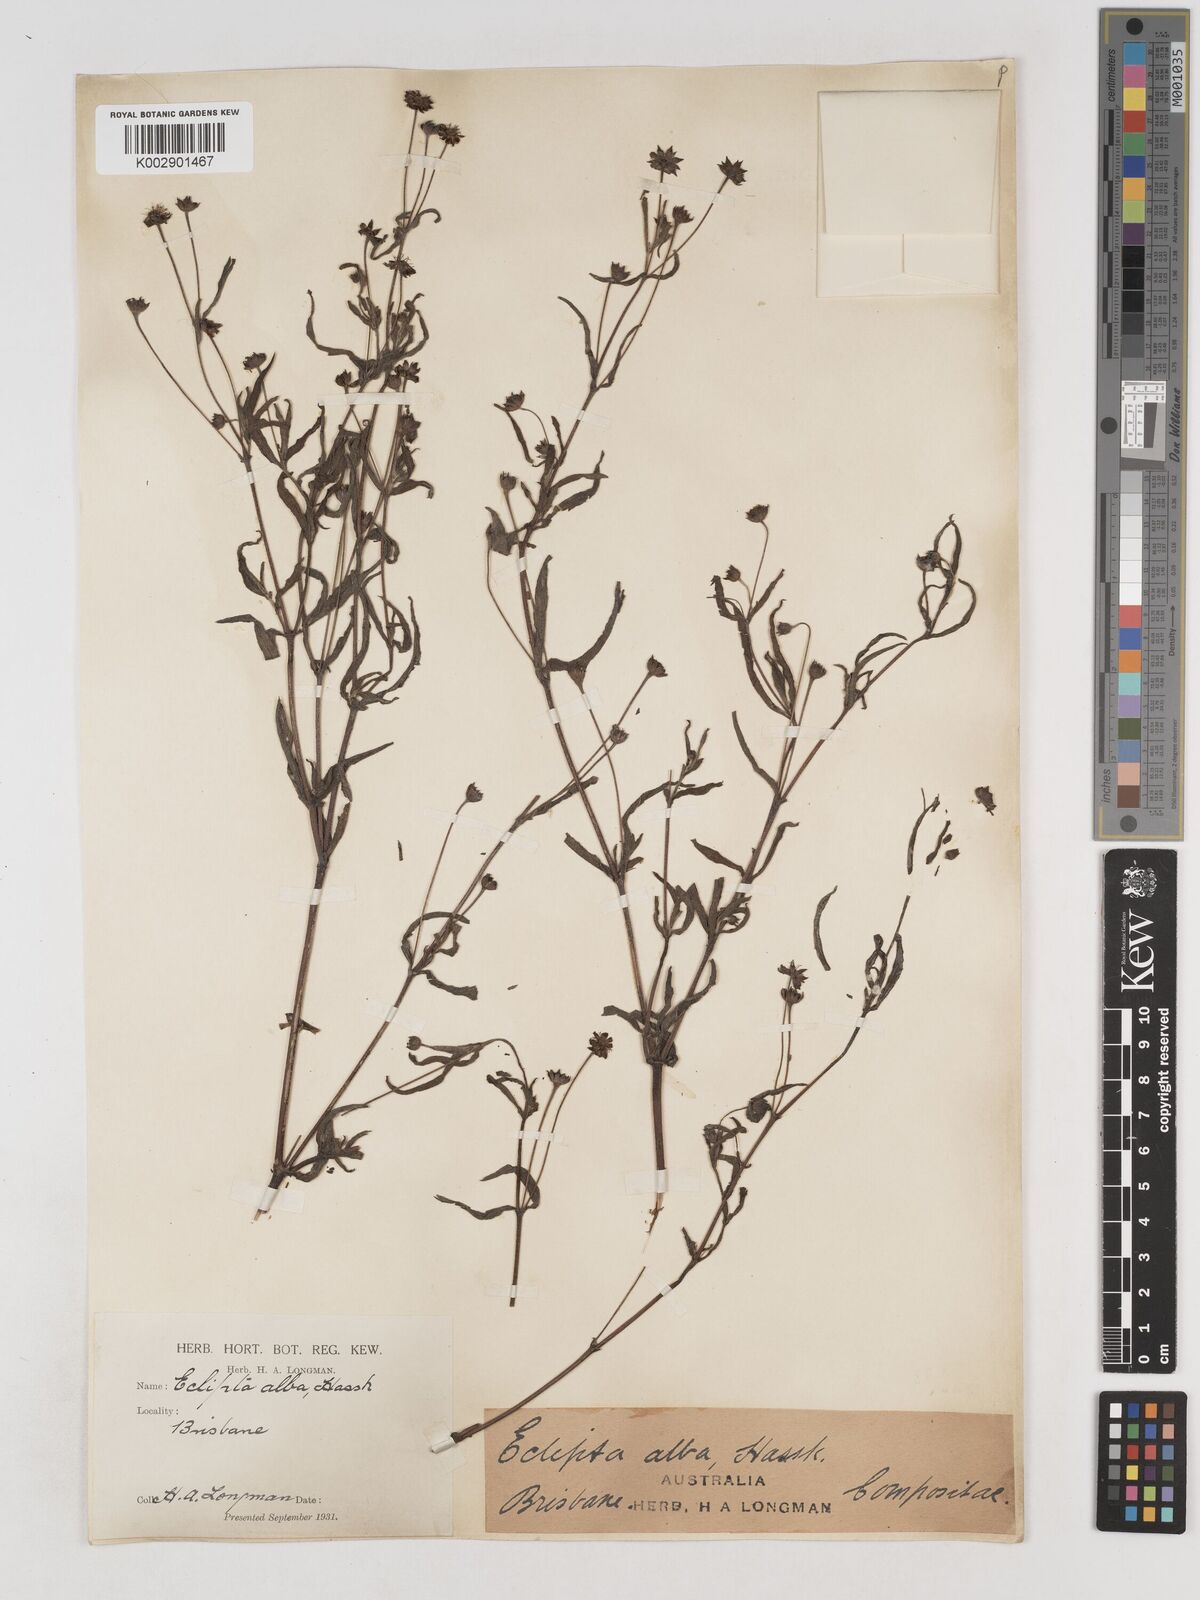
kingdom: Plantae
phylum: Tracheophyta
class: Magnoliopsida
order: Asterales
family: Asteraceae
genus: Eclipta
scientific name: Eclipta alba
